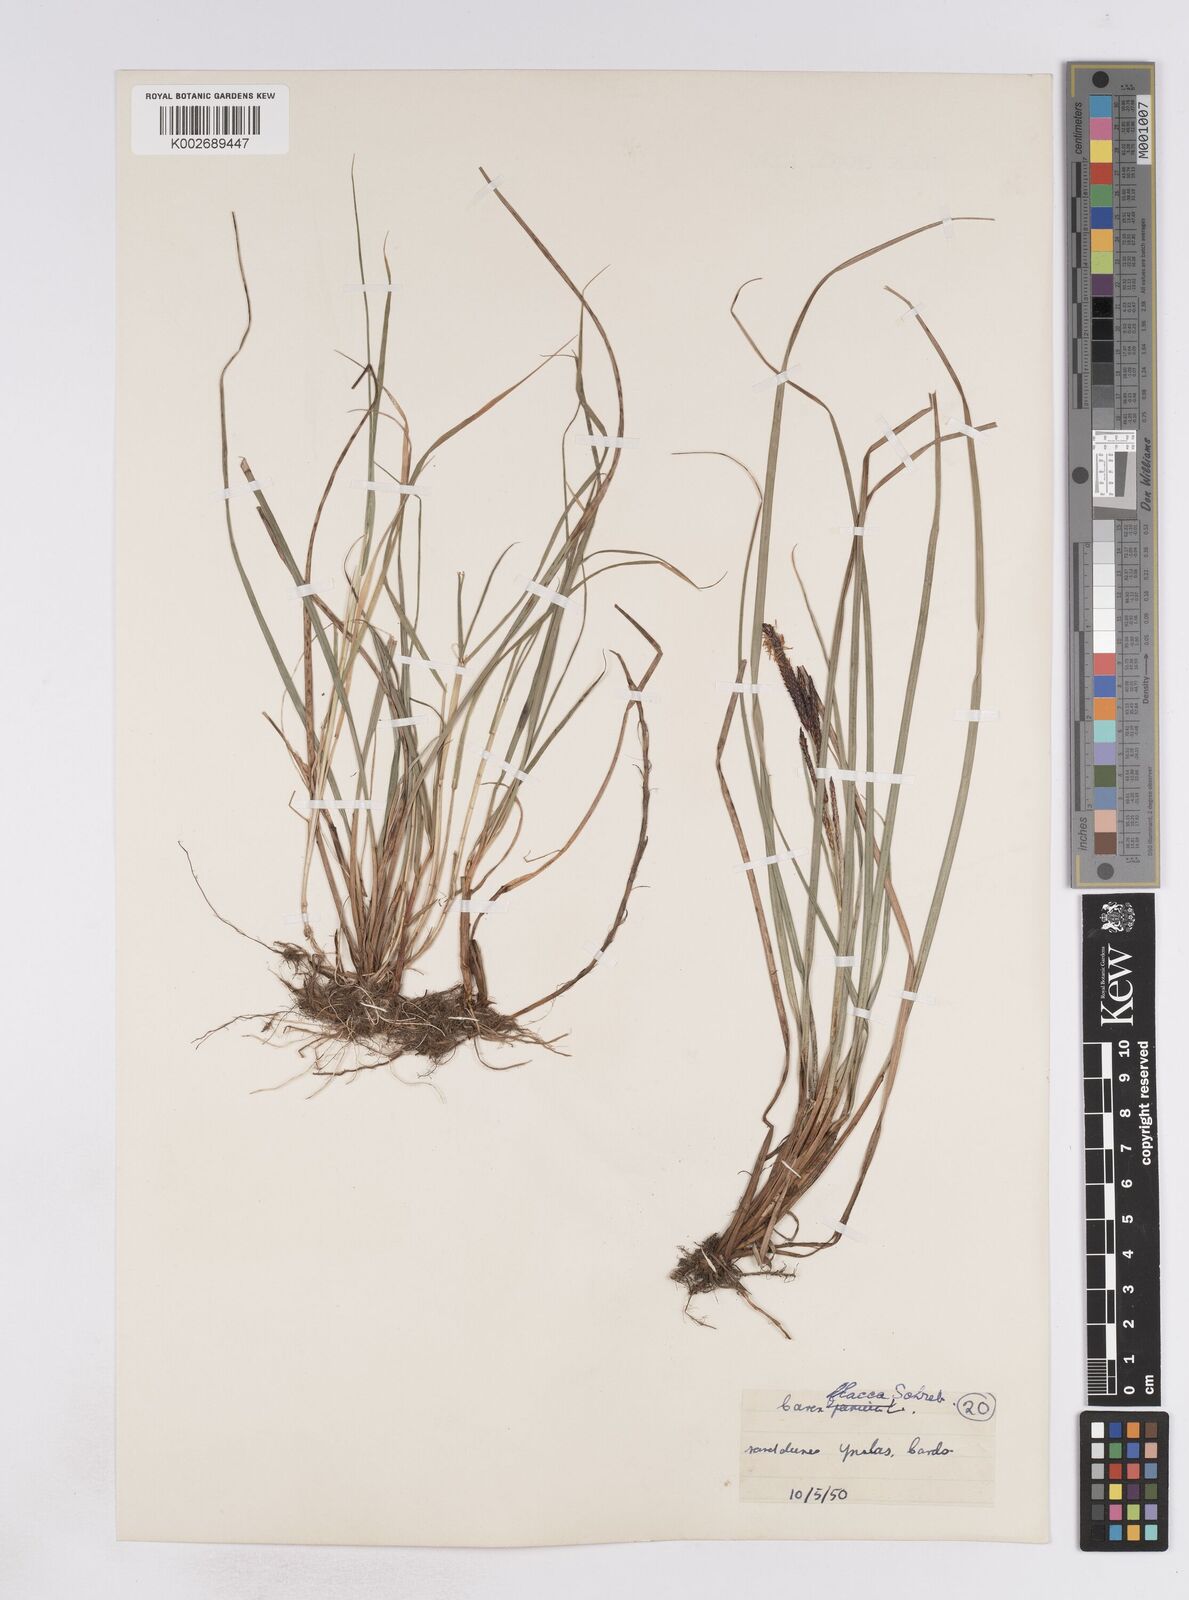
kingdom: Plantae
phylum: Tracheophyta
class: Liliopsida
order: Poales
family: Cyperaceae
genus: Carex
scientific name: Carex flacca
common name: Glaucous sedge
